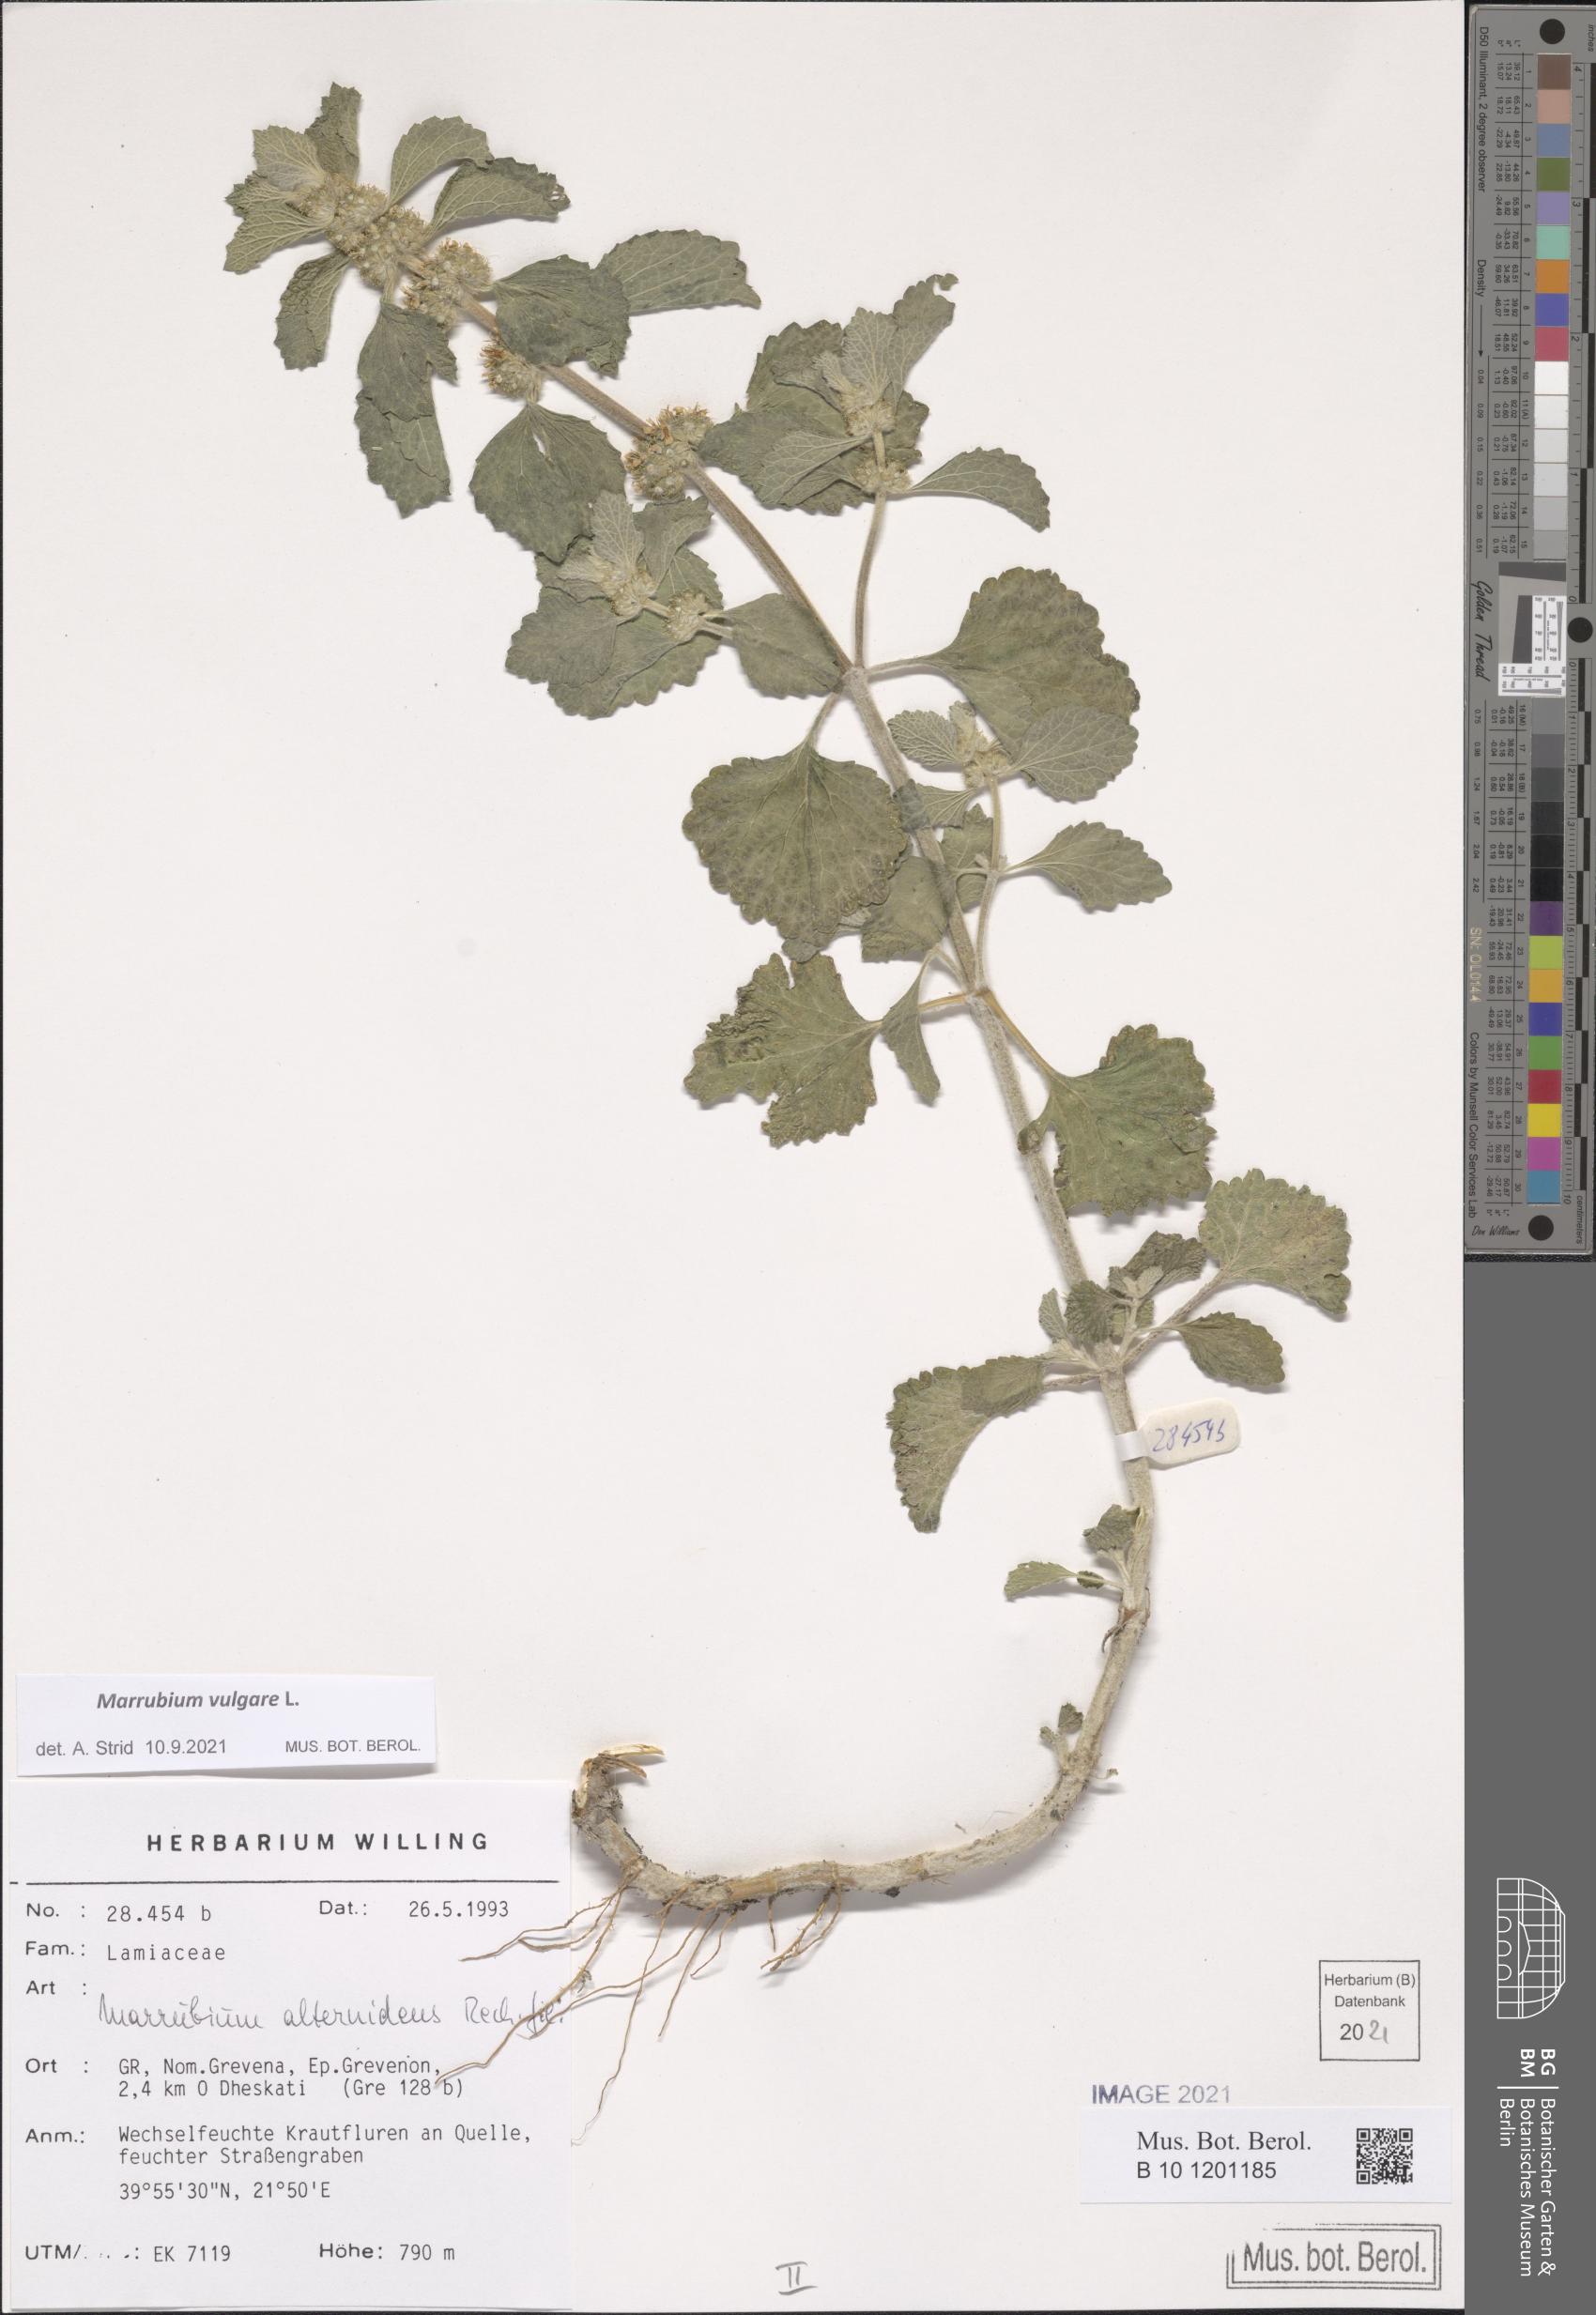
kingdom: Plantae
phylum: Tracheophyta
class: Magnoliopsida
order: Lamiales
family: Lamiaceae
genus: Marrubium
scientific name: Marrubium vulgare
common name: Horehound
